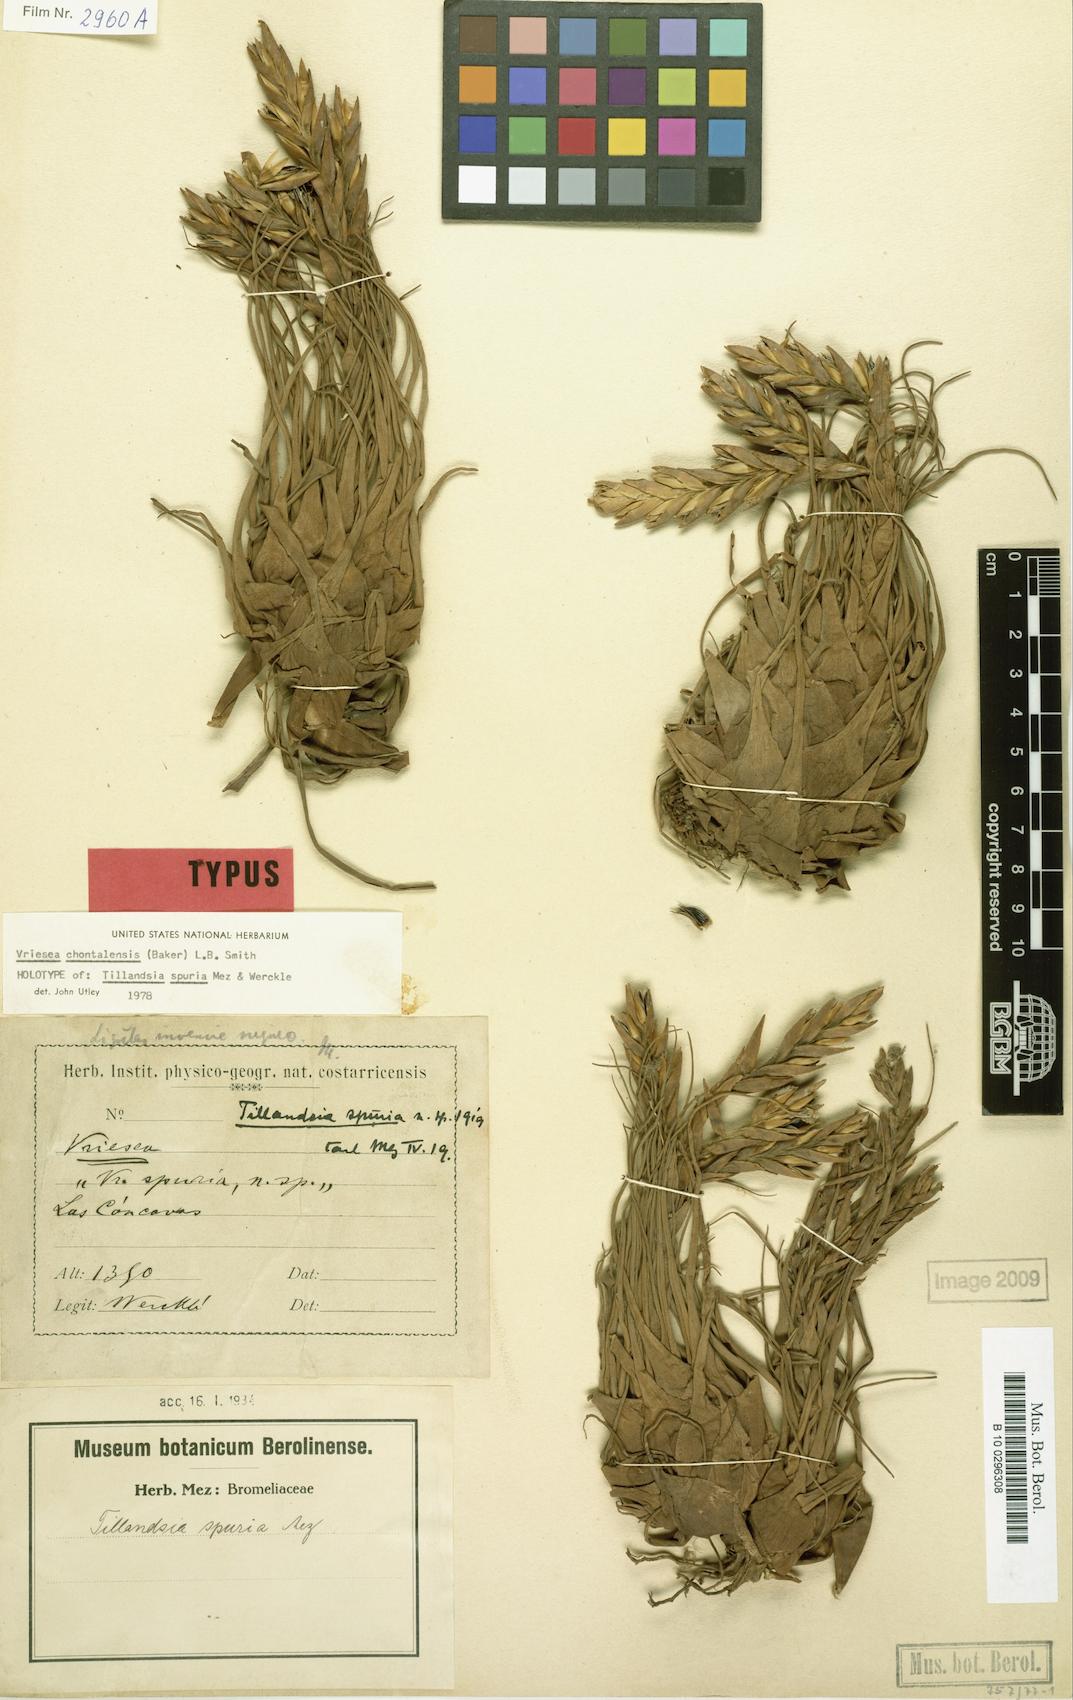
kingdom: Plantae
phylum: Tracheophyta
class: Liliopsida
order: Poales
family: Bromeliaceae
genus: Tillandsia
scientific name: Tillandsia chontalensis
